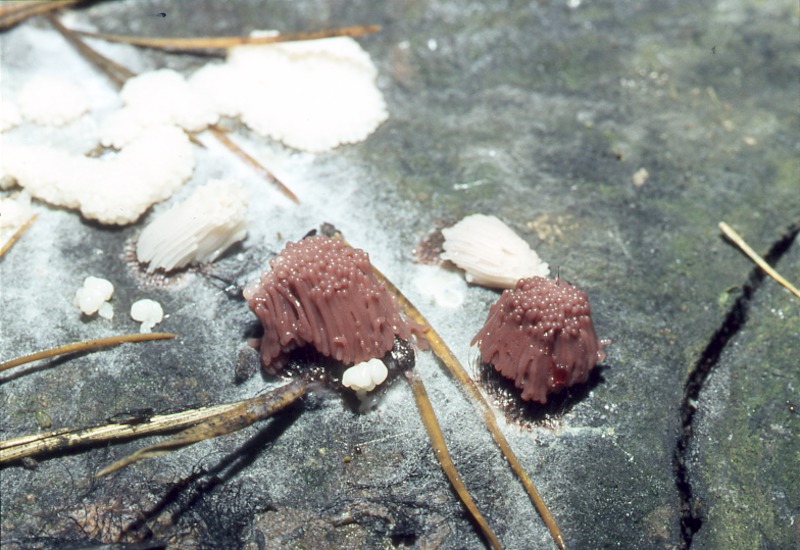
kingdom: Protozoa
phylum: Mycetozoa
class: Myxomycetes
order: Stemonitidales
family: Stemonitidaceae
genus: Stemonitis
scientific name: Stemonitis axifera
